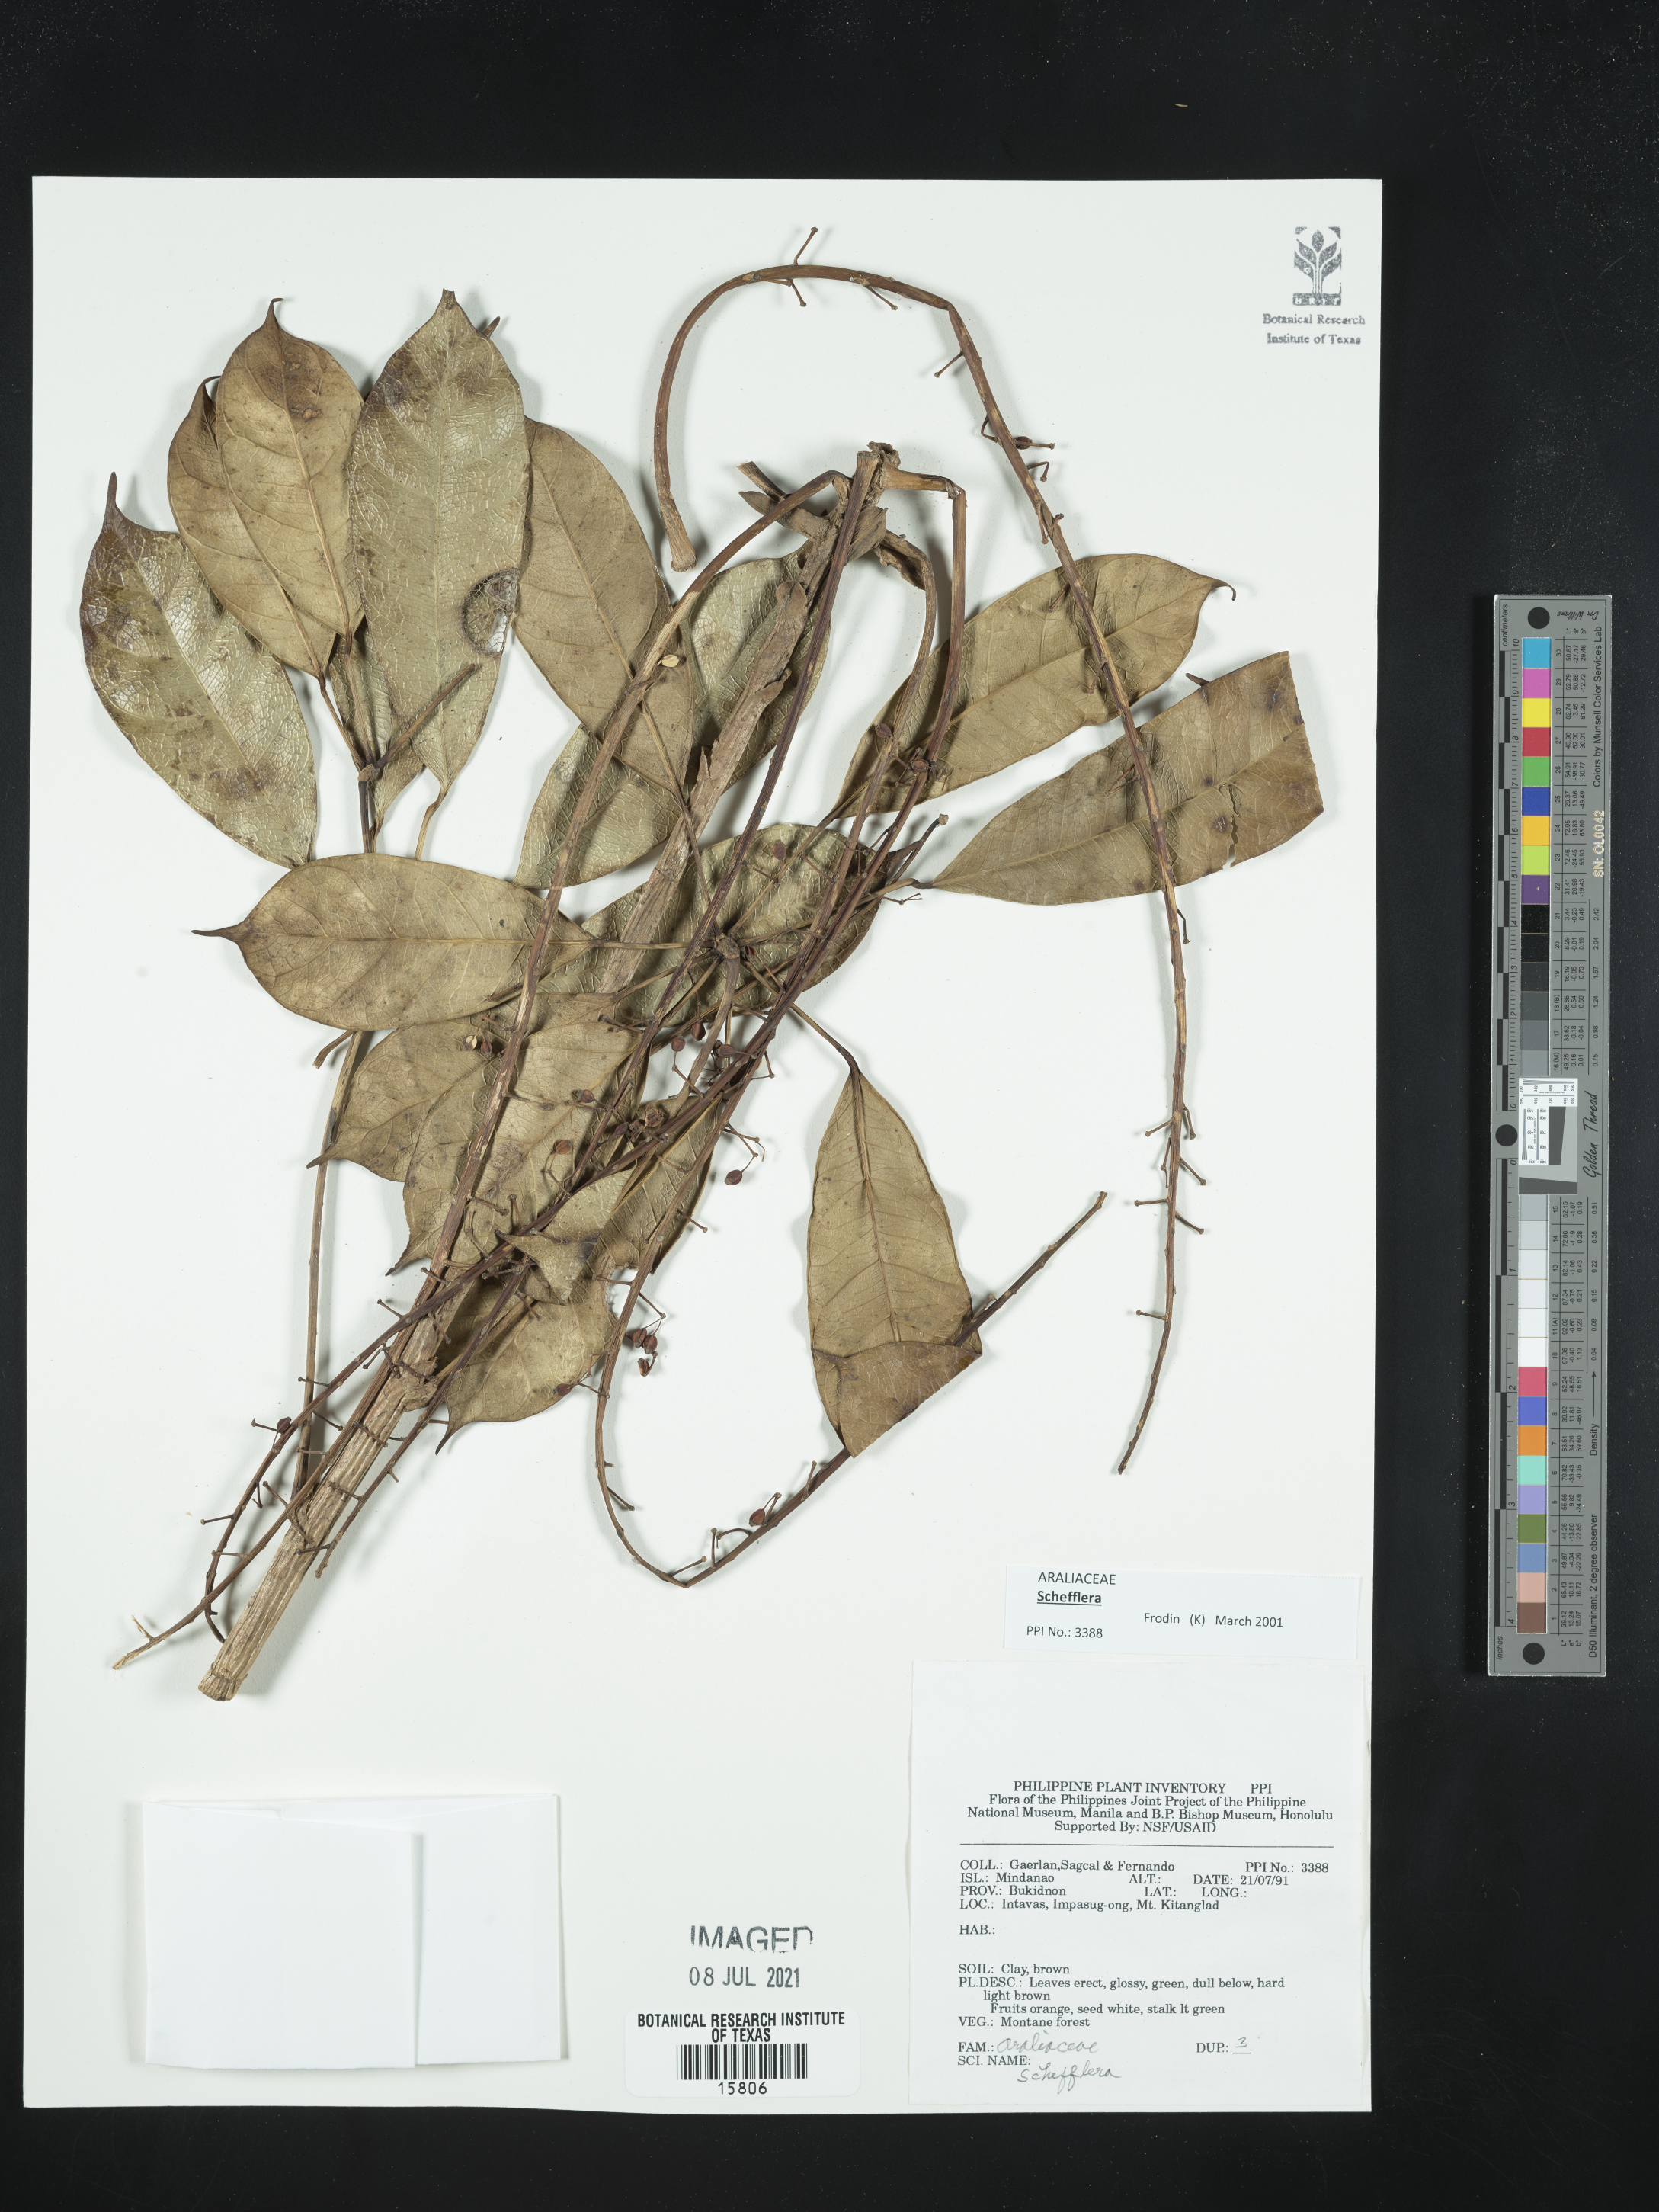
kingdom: Plantae
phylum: Tracheophyta
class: Magnoliopsida
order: Apiales
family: Araliaceae
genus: Schefflera
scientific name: Schefflera
